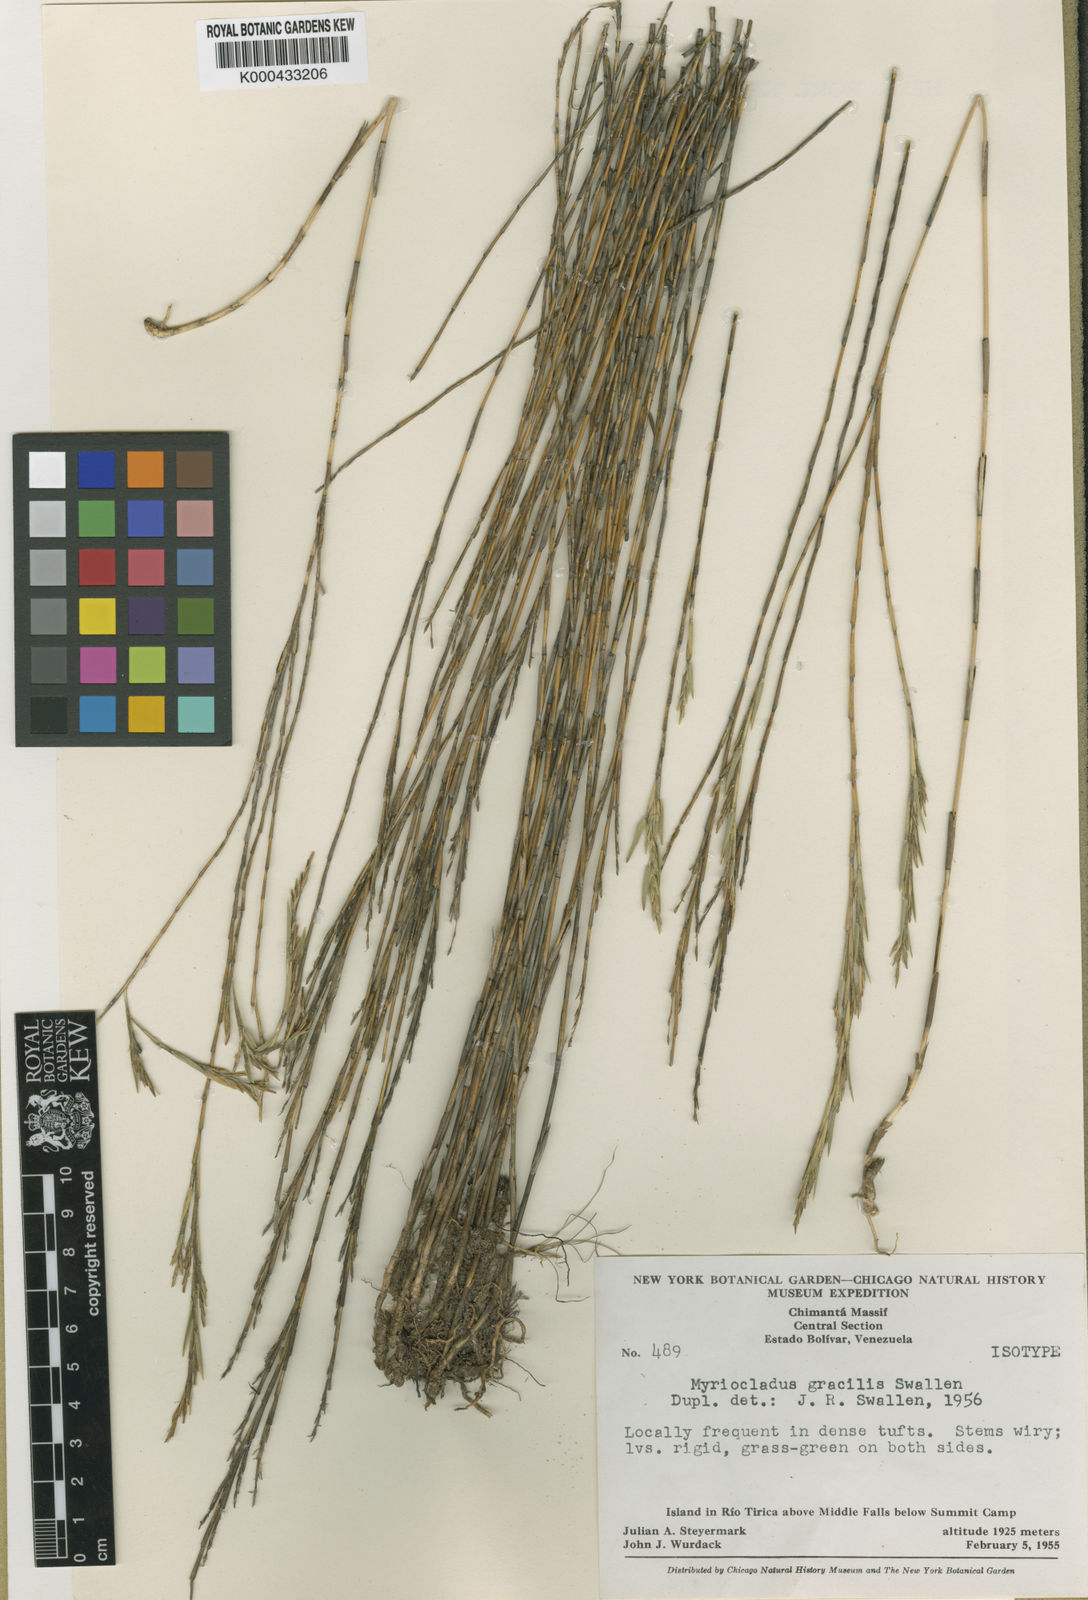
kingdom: Plantae
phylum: Tracheophyta
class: Liliopsida
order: Poales
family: Poaceae
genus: Myriocladus
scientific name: Myriocladus steyermarkii
